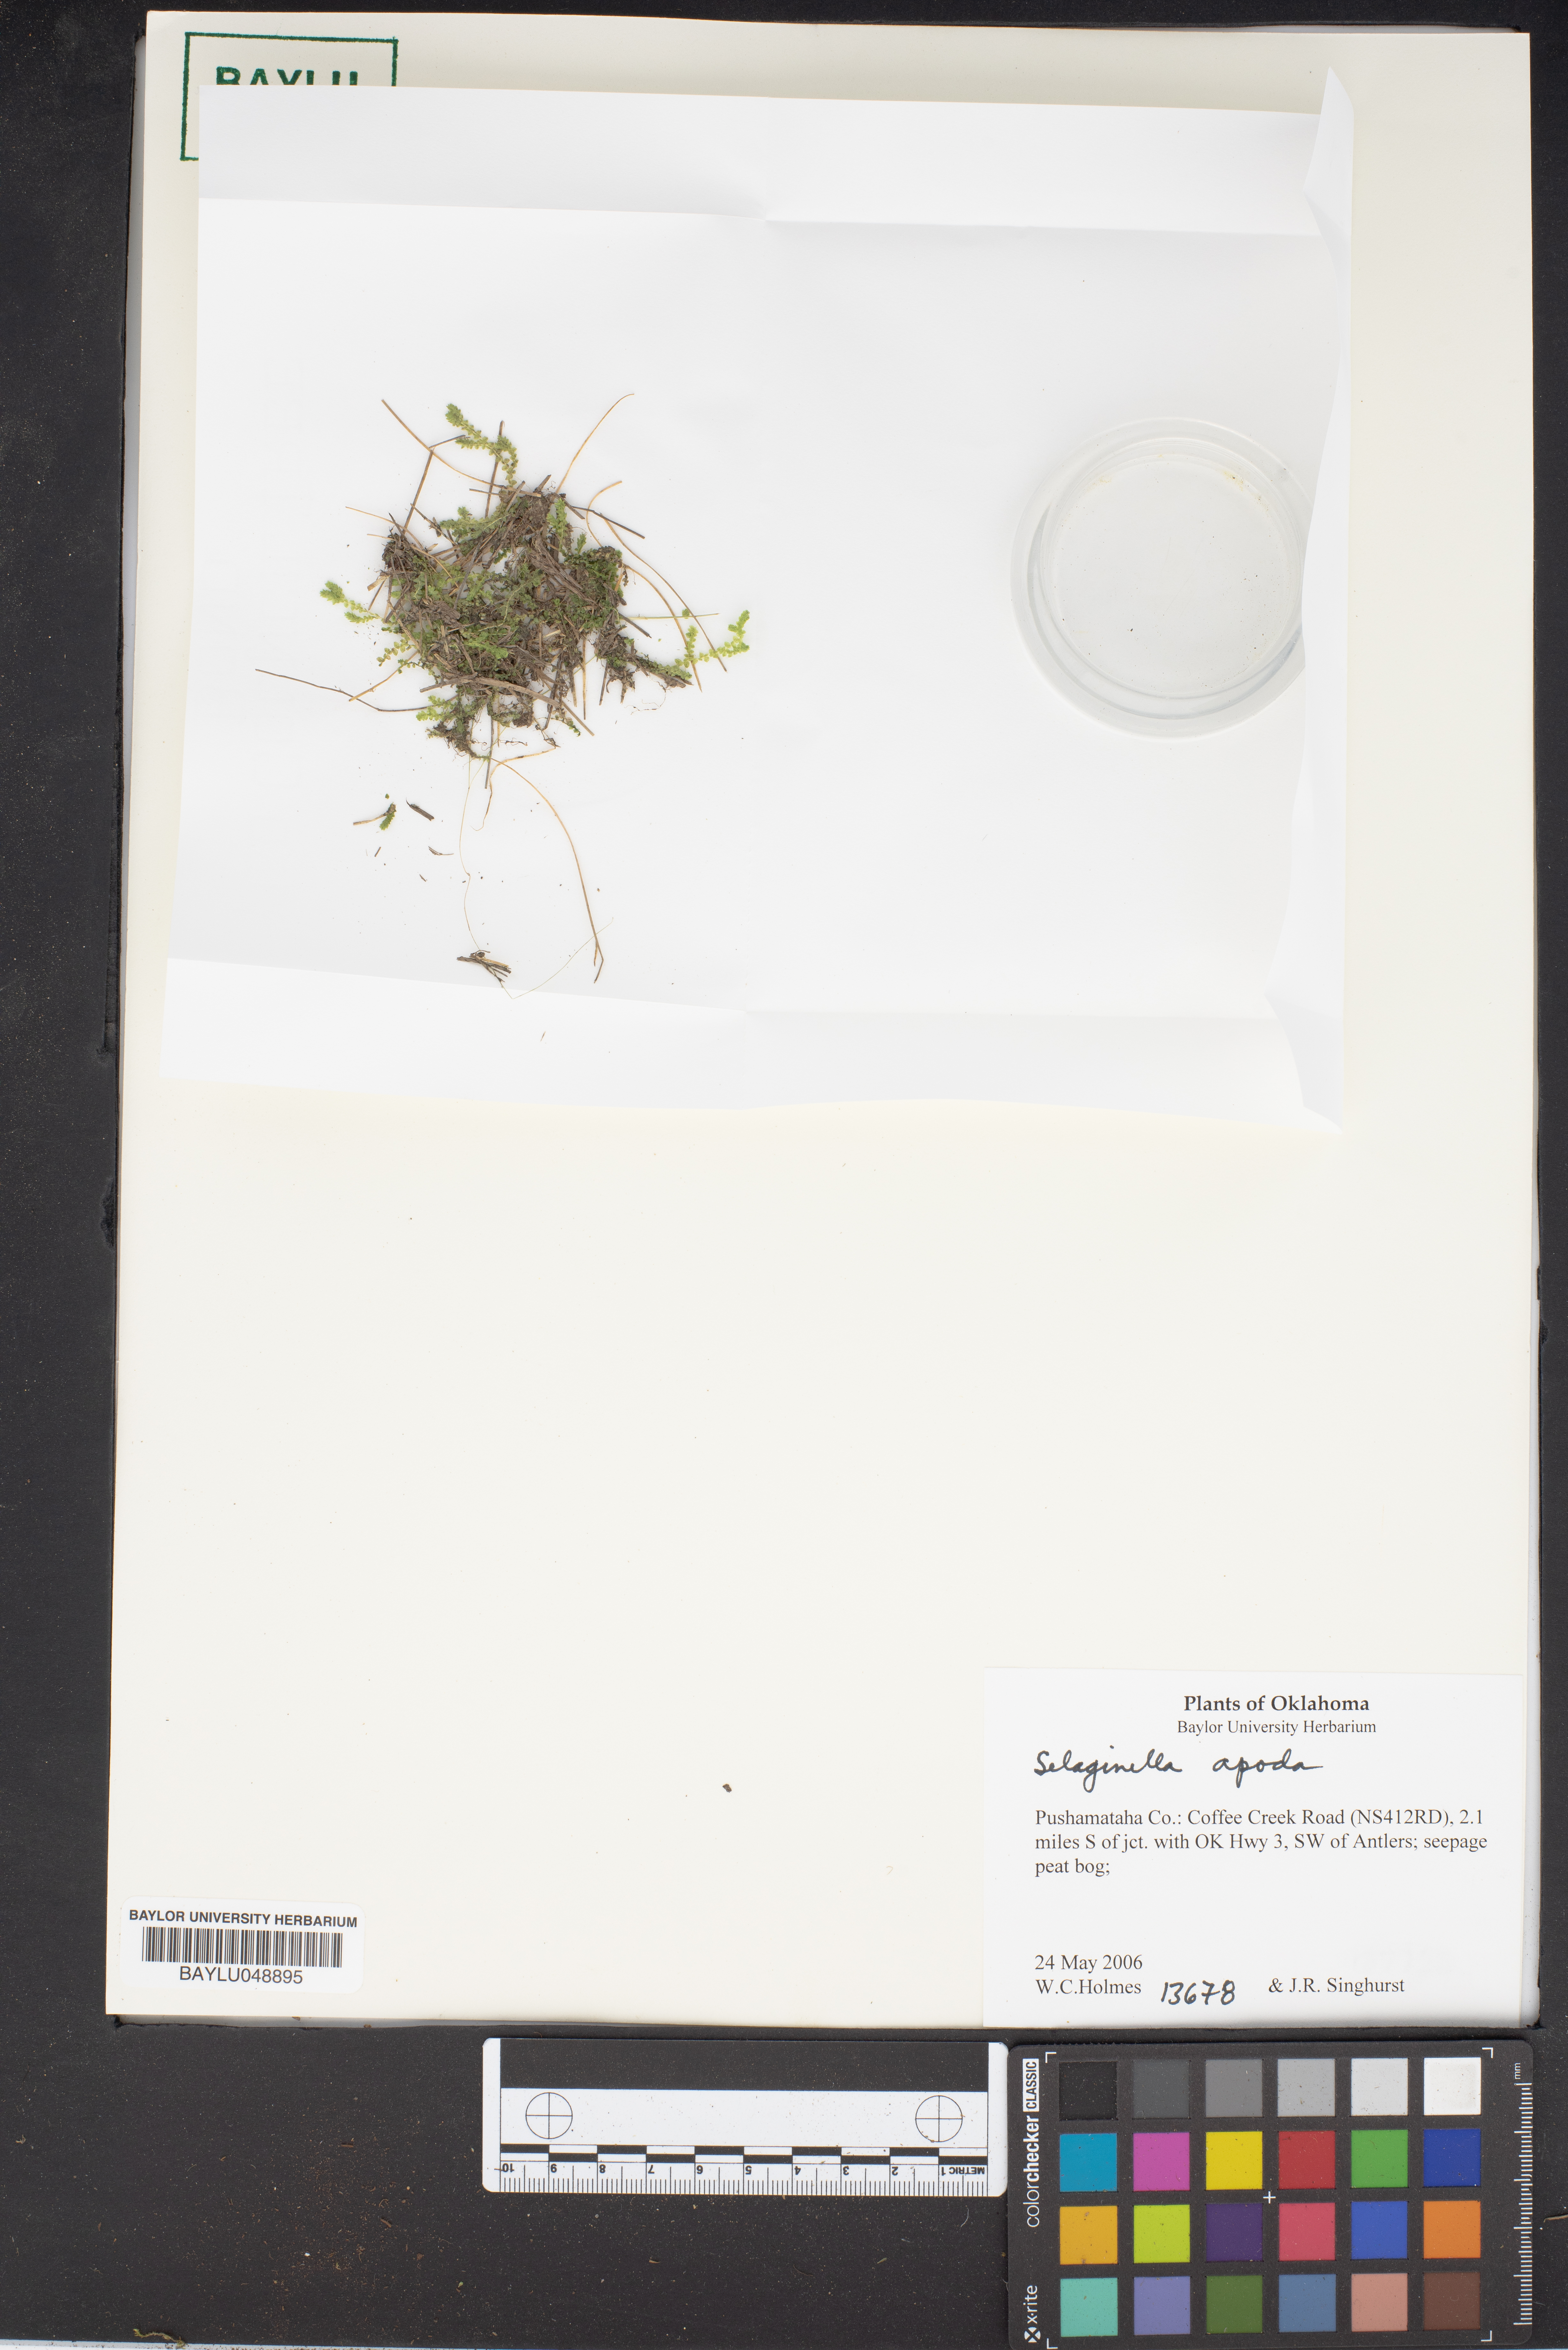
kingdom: Plantae
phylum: Tracheophyta
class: Lycopodiopsida
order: Selaginellales
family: Selaginellaceae
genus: Selaginella
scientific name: Selaginella apoda
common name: Creeping spikemoss
